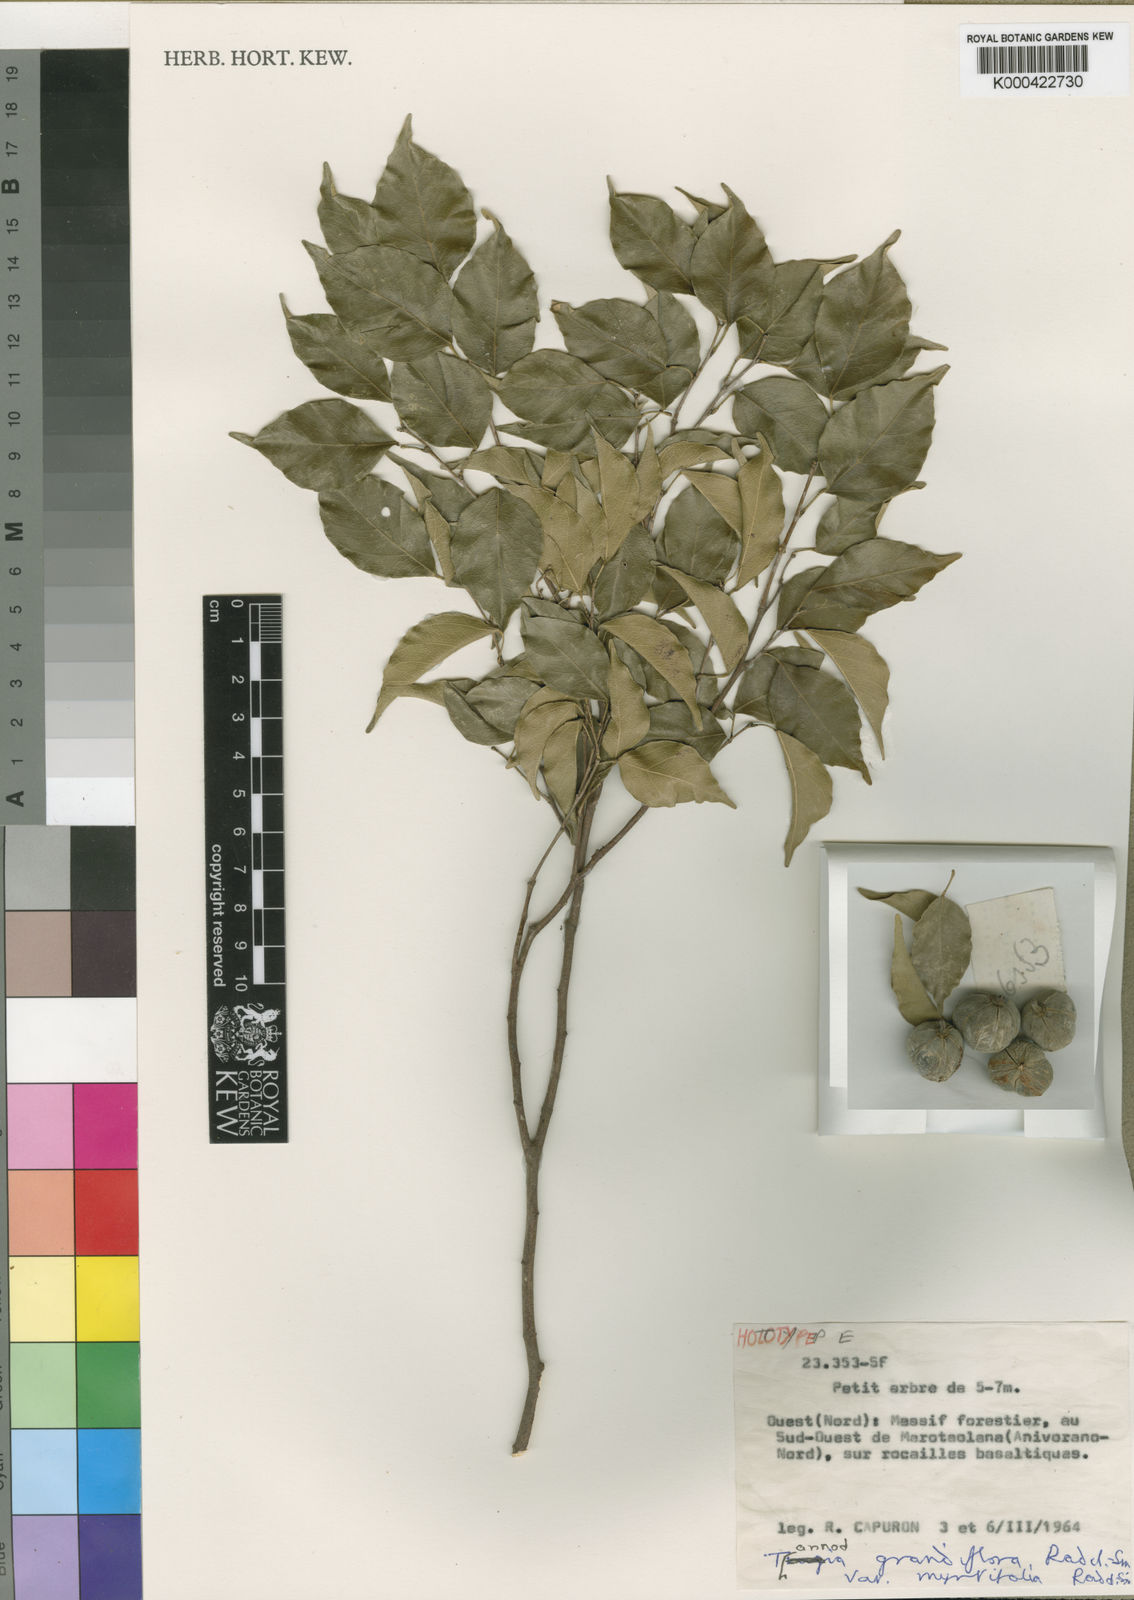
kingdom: Plantae
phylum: Tracheophyta
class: Magnoliopsida
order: Malpighiales
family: Euphorbiaceae
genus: Tannodia
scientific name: Tannodia grandiflora
